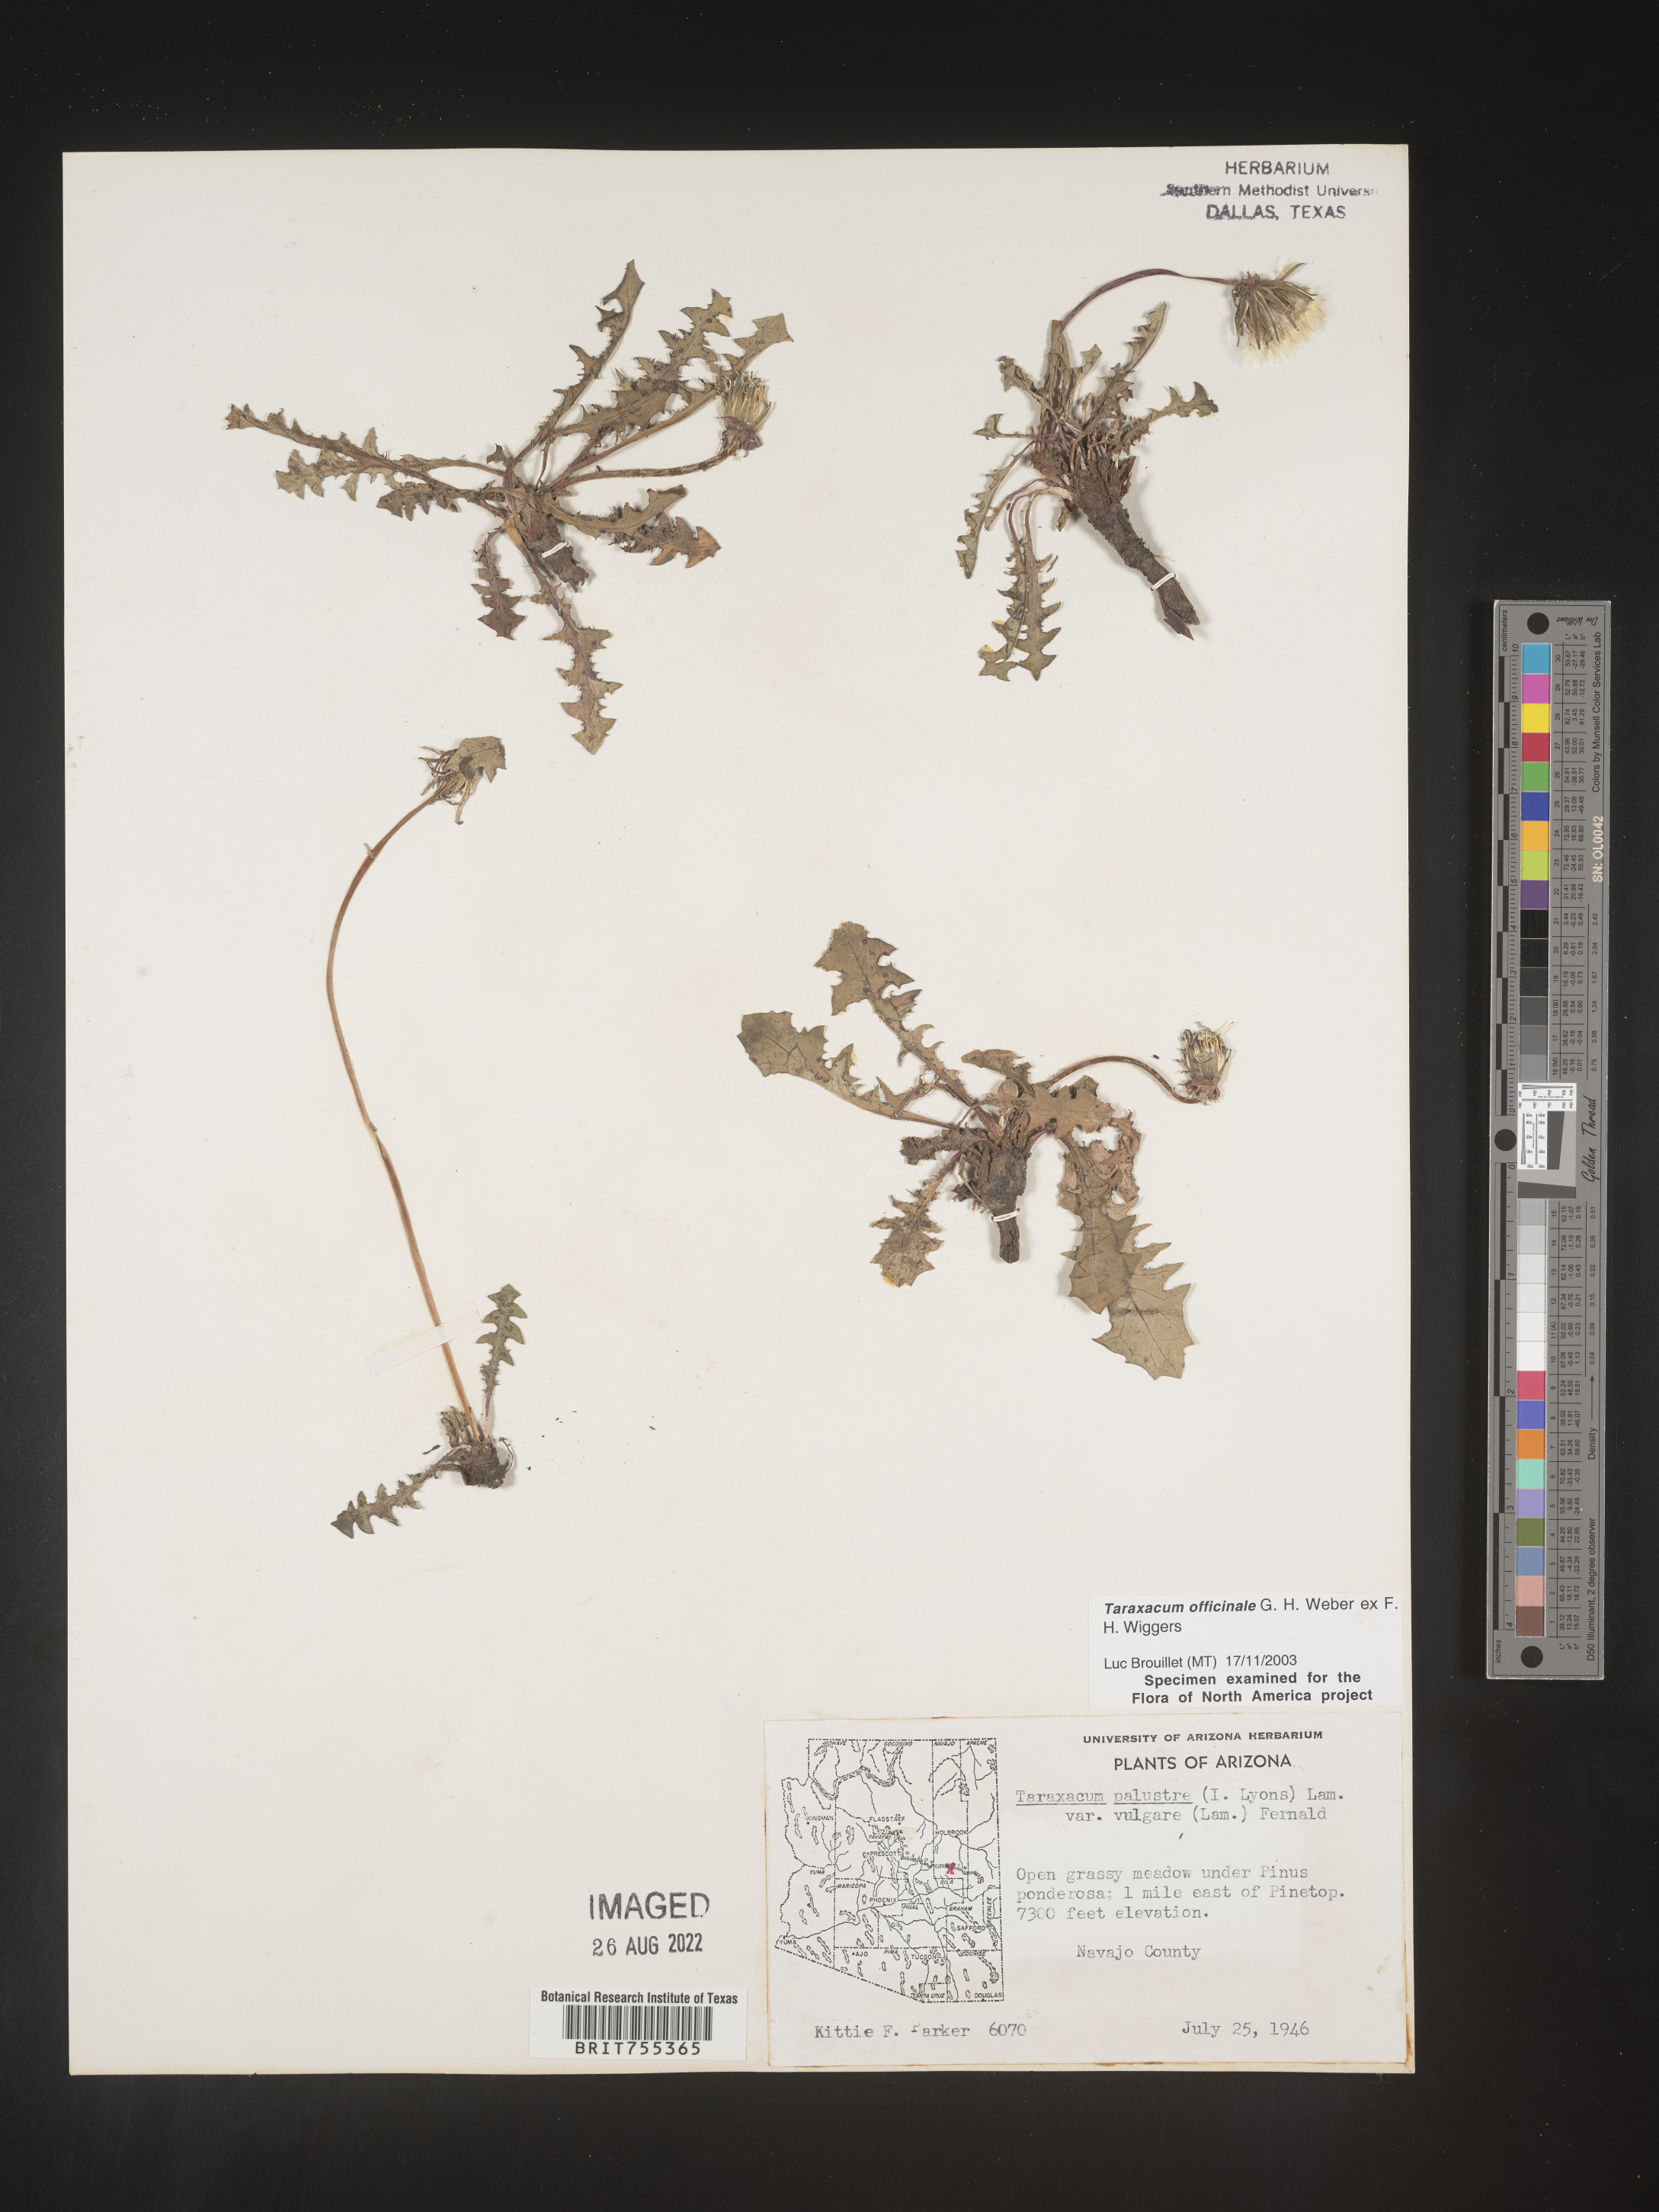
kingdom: Plantae
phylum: Tracheophyta
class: Magnoliopsida
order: Asterales
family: Asteraceae
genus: Taraxacum
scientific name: Taraxacum officinale
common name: Common dandelion
